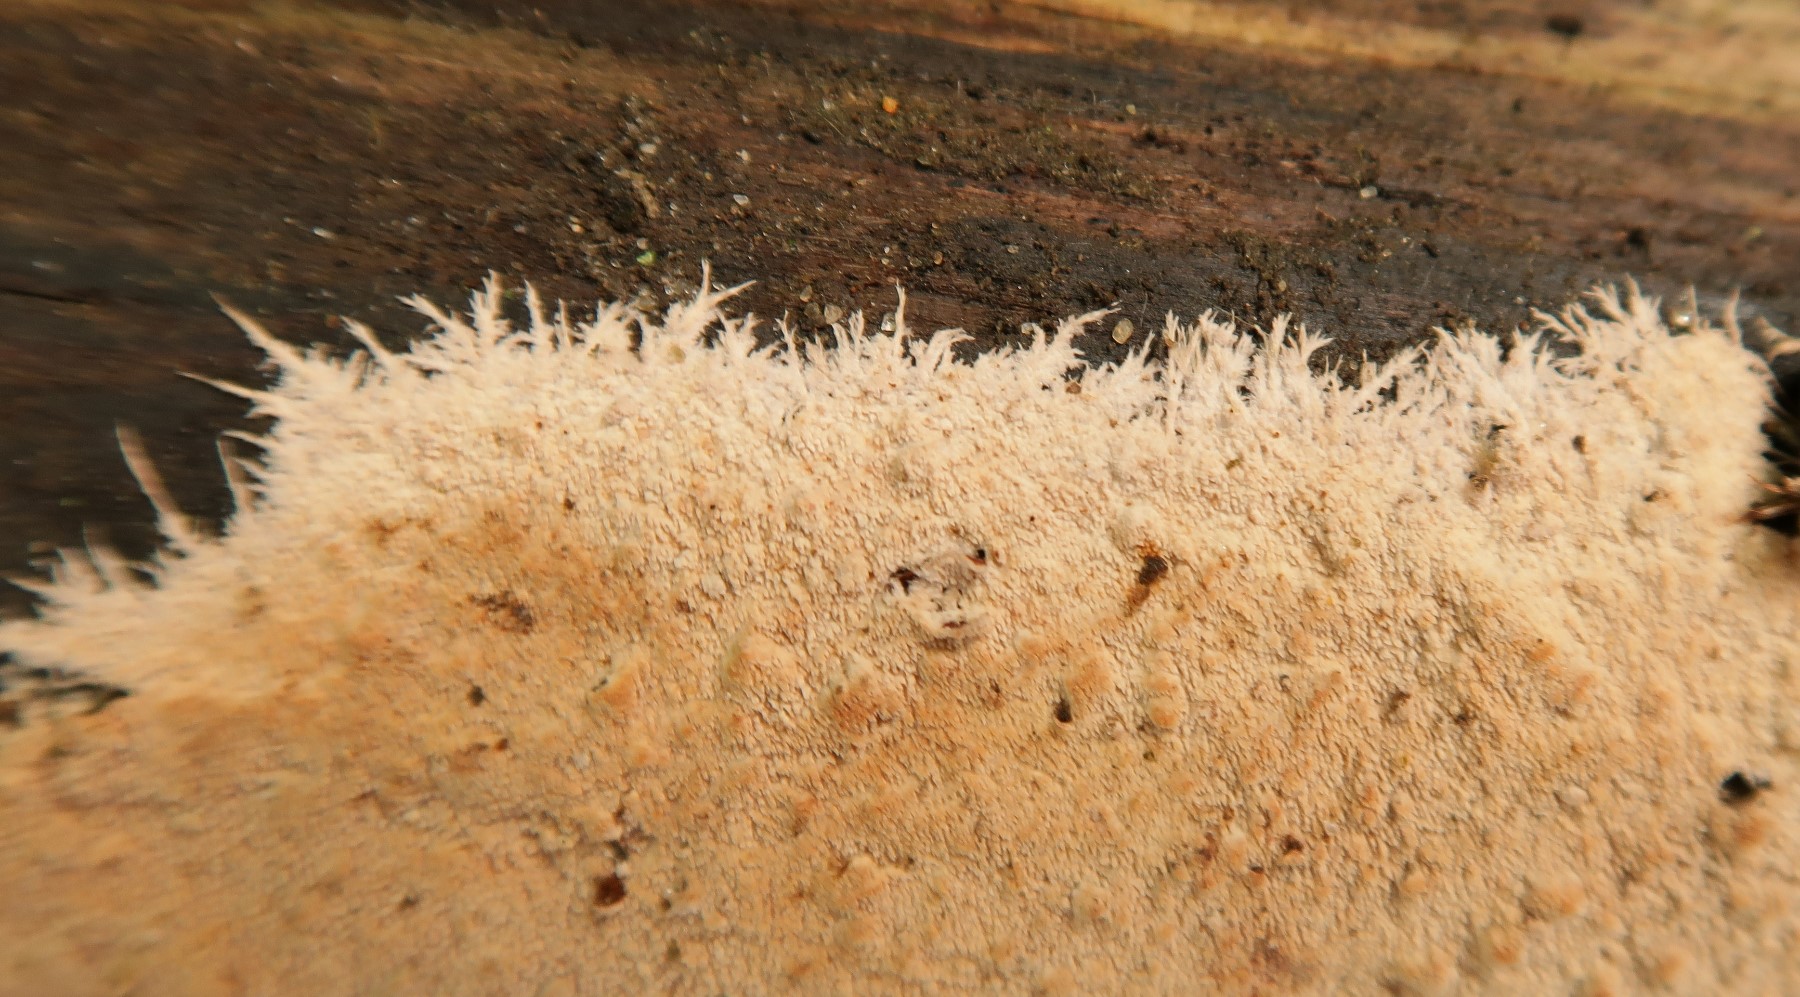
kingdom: Fungi
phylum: Basidiomycota
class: Agaricomycetes
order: Polyporales
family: Steccherinaceae
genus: Steccherinum
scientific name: Steccherinum fimbriatum
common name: trådet skønpig
